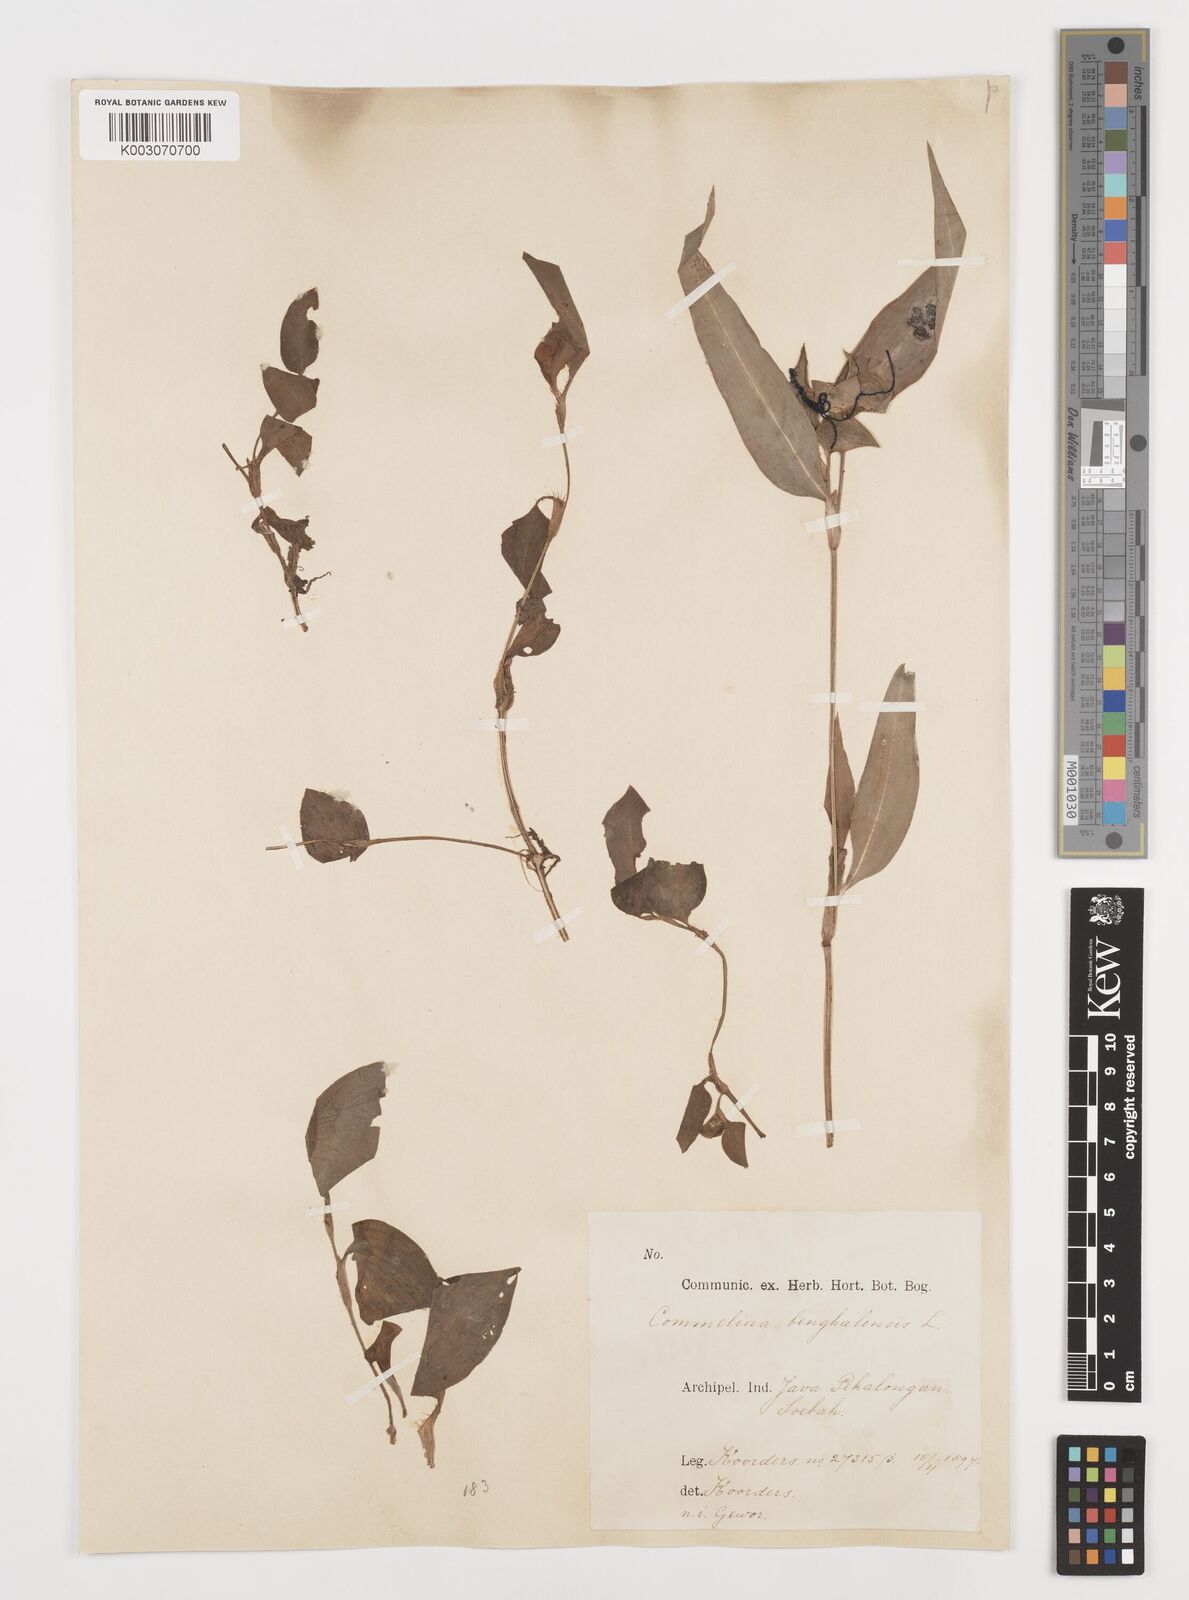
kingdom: Plantae
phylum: Tracheophyta
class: Liliopsida
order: Commelinales
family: Commelinaceae
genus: Commelina
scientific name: Commelina benghalensis
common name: Jio
